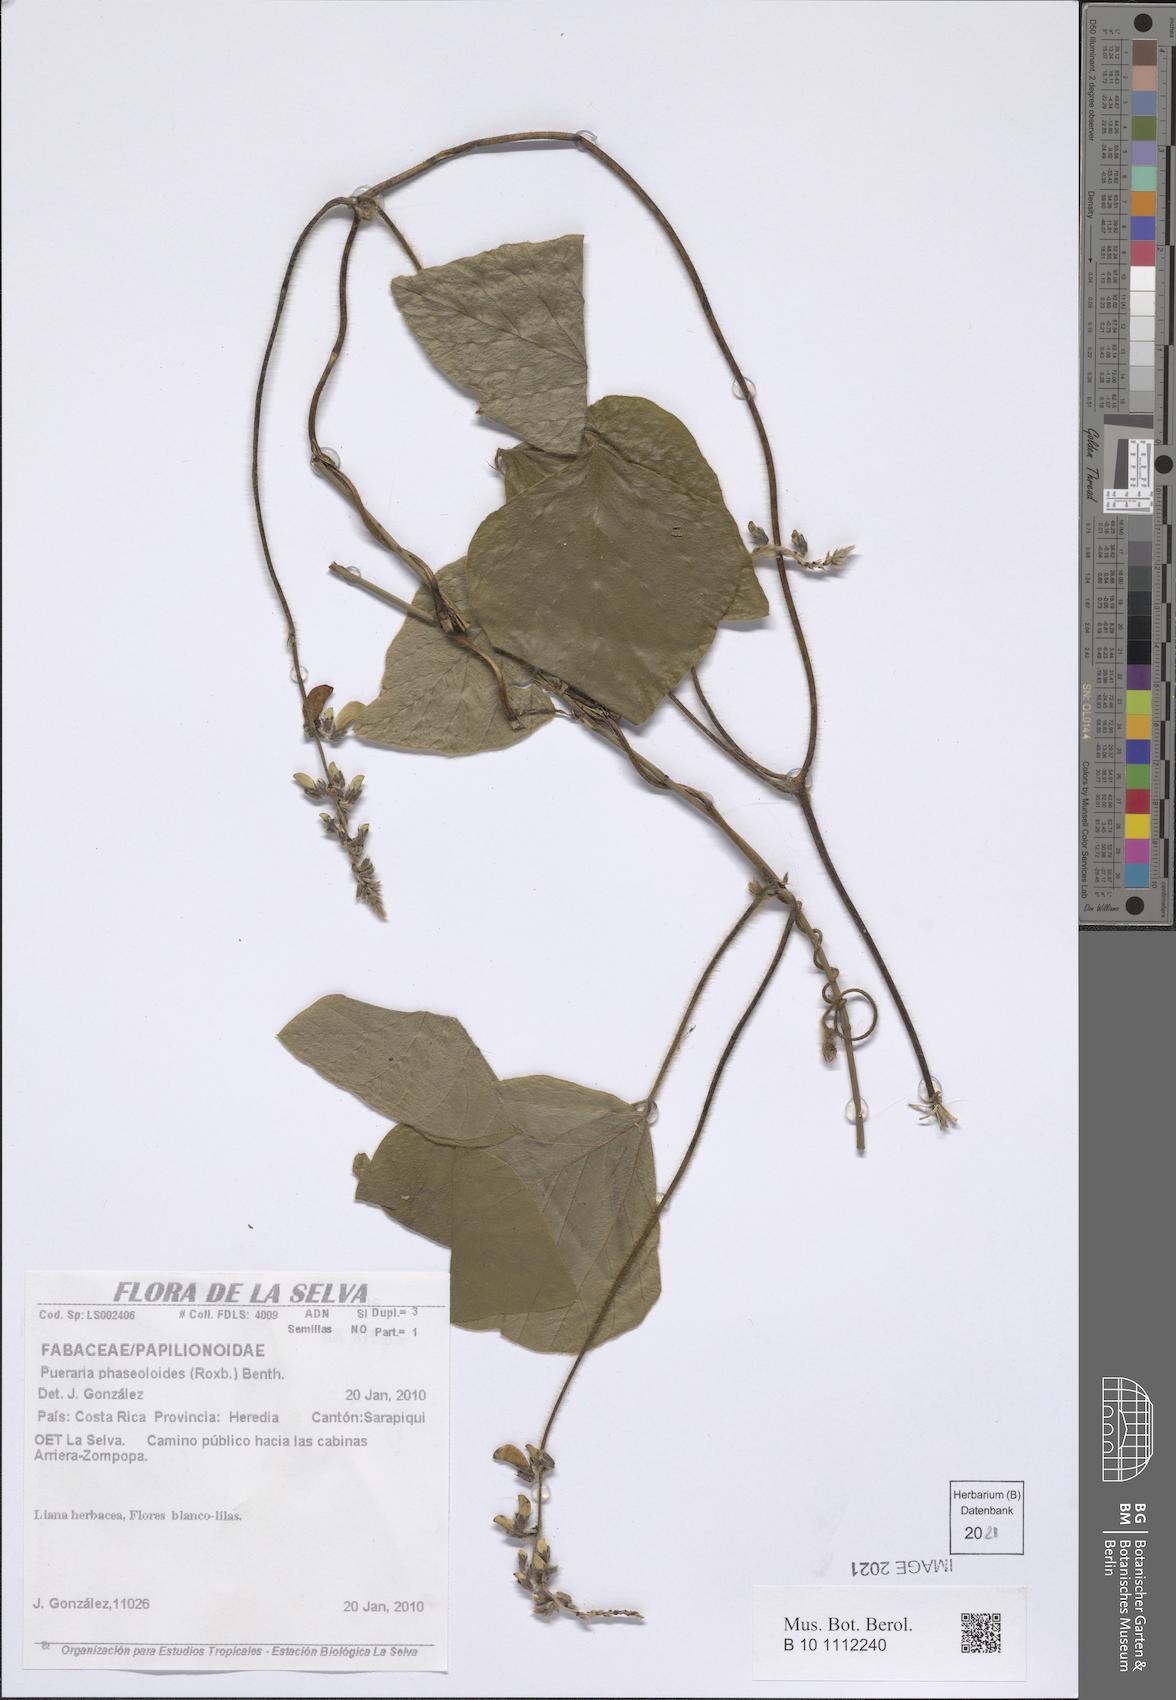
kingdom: Plantae
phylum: Tracheophyta
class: Magnoliopsida
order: Fabales
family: Fabaceae
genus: Neustanthus
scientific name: Neustanthus phaseoloides
